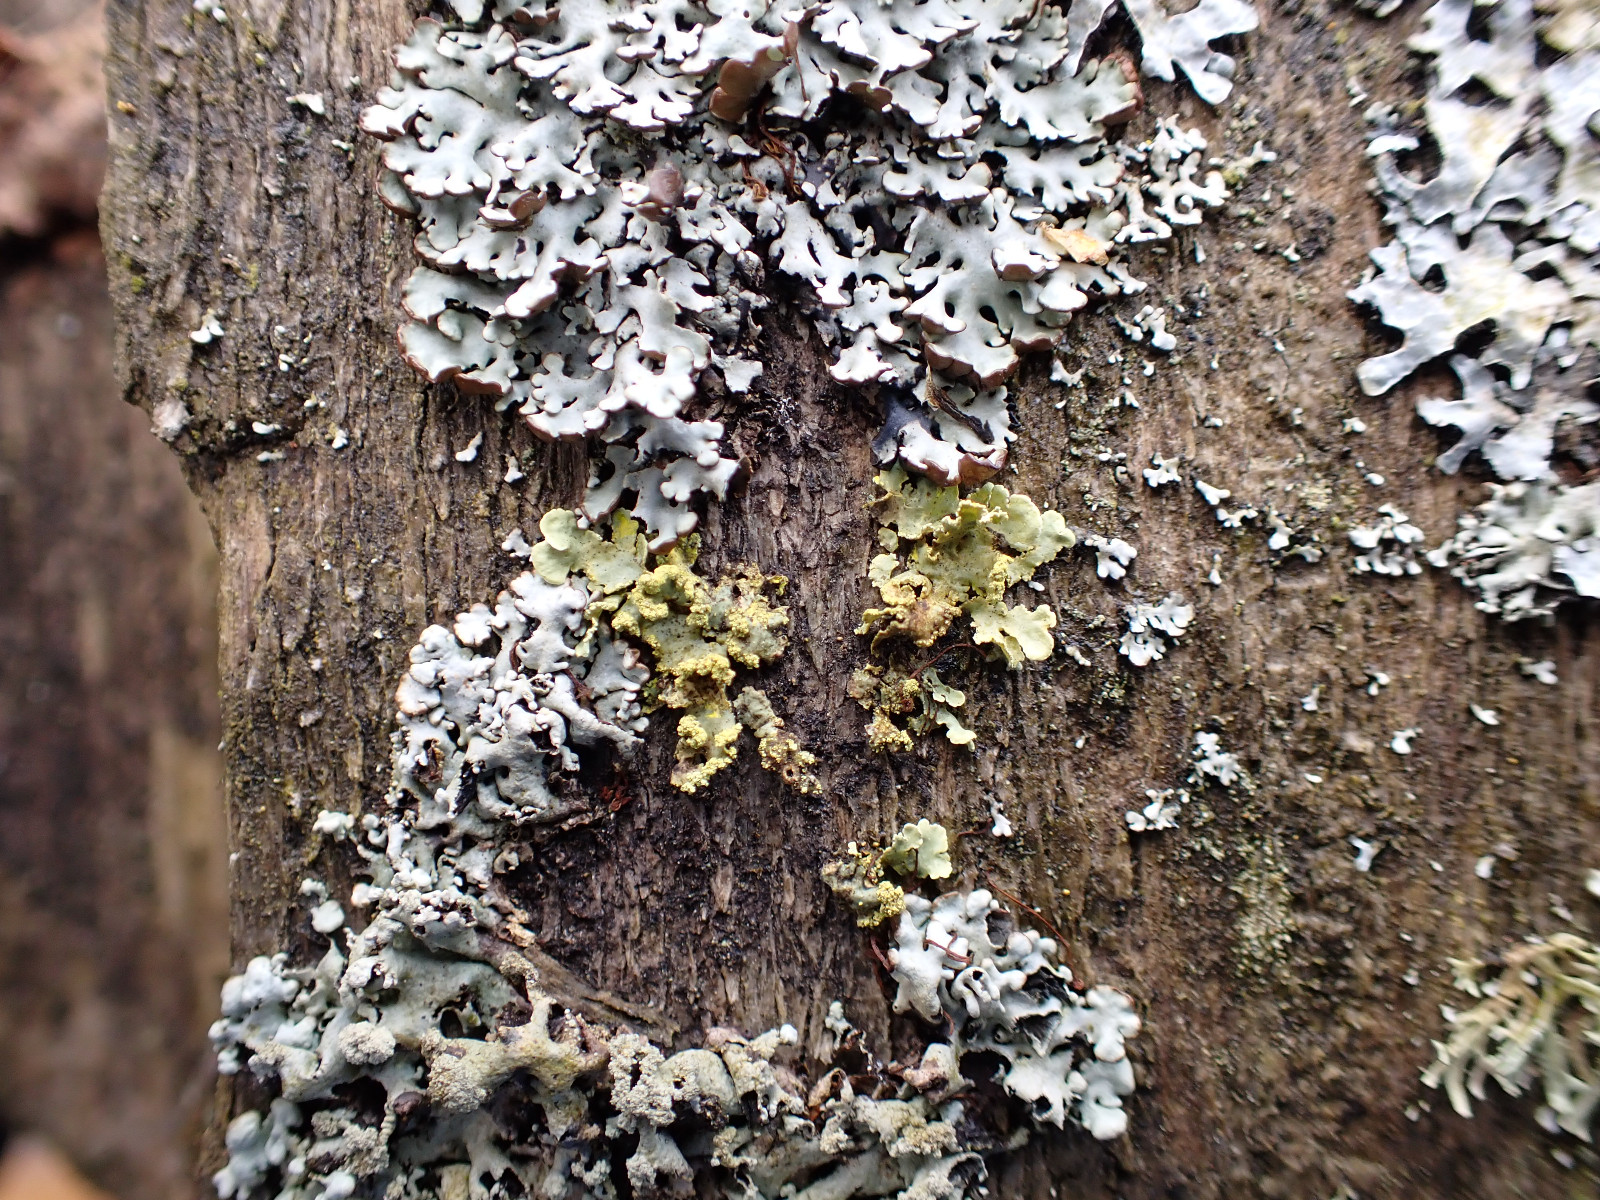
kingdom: Fungi
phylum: Ascomycota
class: Lecanoromycetes
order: Lecanorales
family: Parmeliaceae
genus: Vulpicida
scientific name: Vulpicida pinastri
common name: gul kruslav
